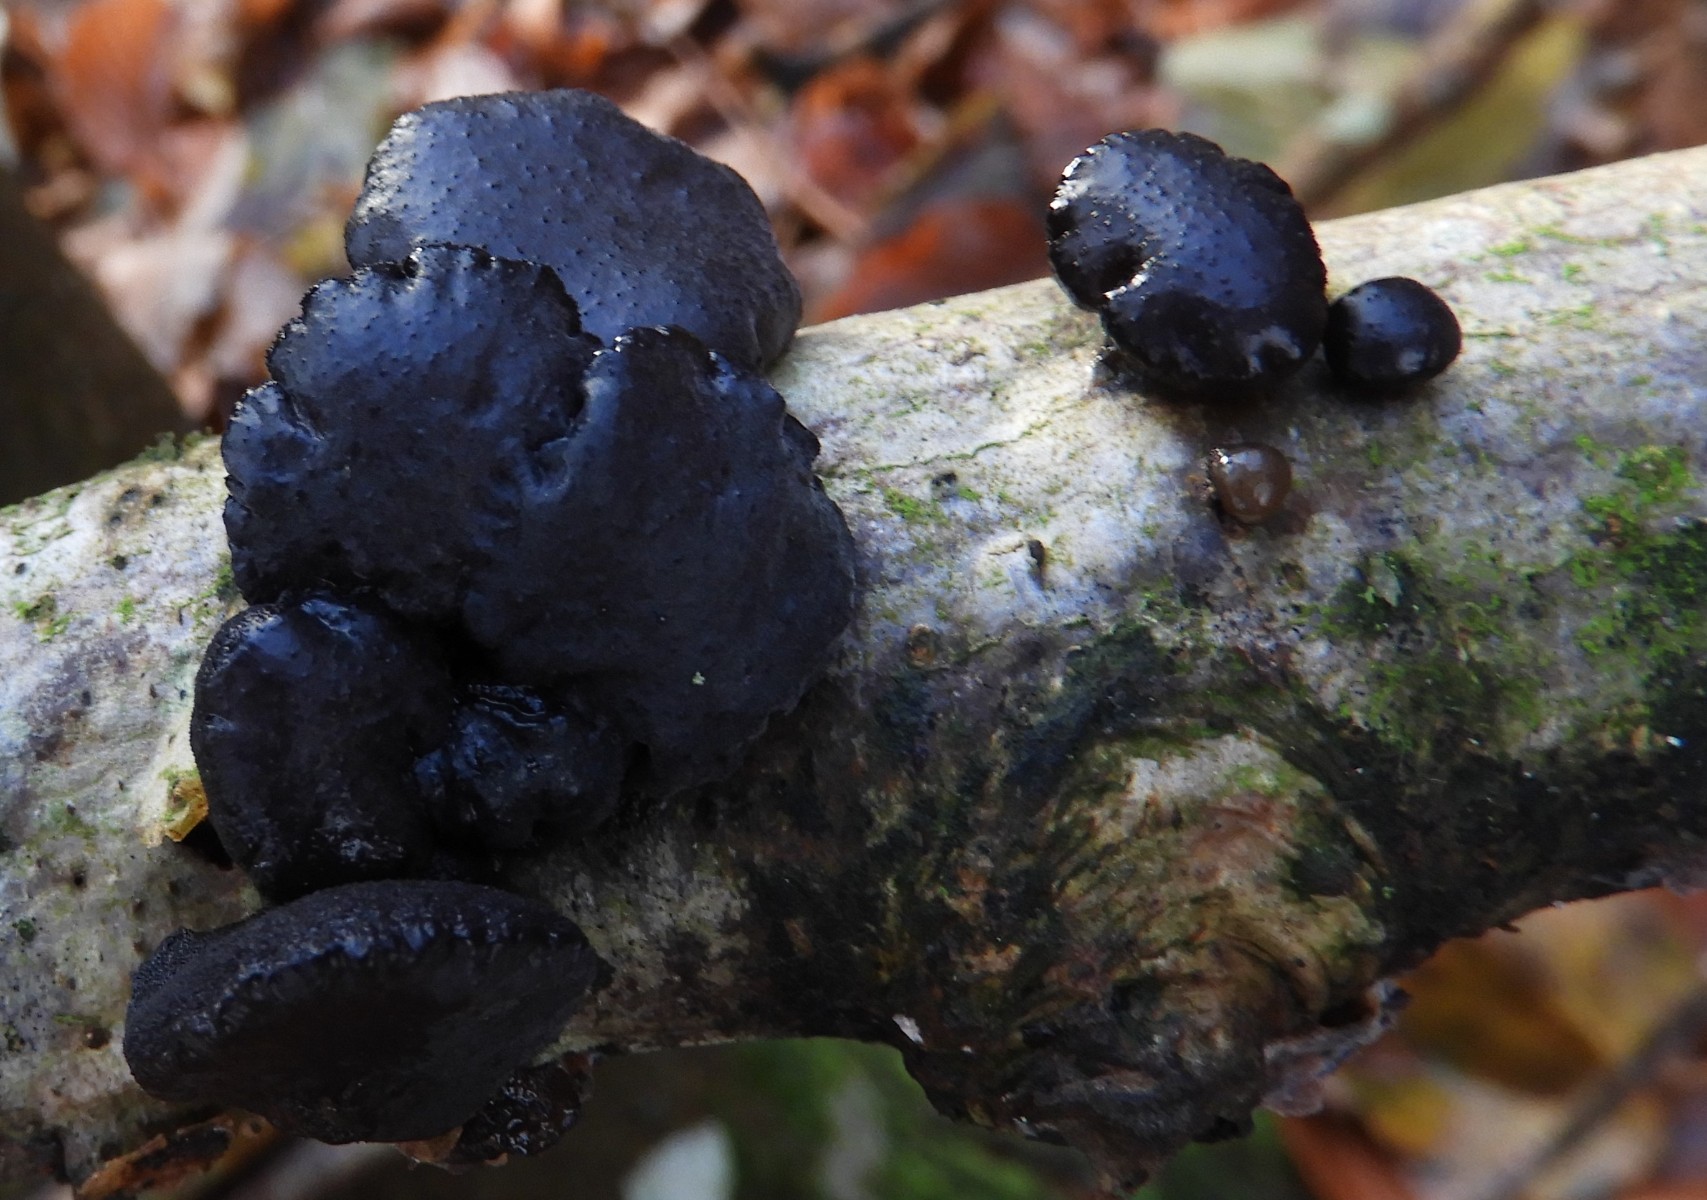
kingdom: Fungi
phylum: Basidiomycota
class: Agaricomycetes
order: Auriculariales
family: Auriculariaceae
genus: Exidia
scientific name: Exidia glandulosa
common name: ege-bævretop
